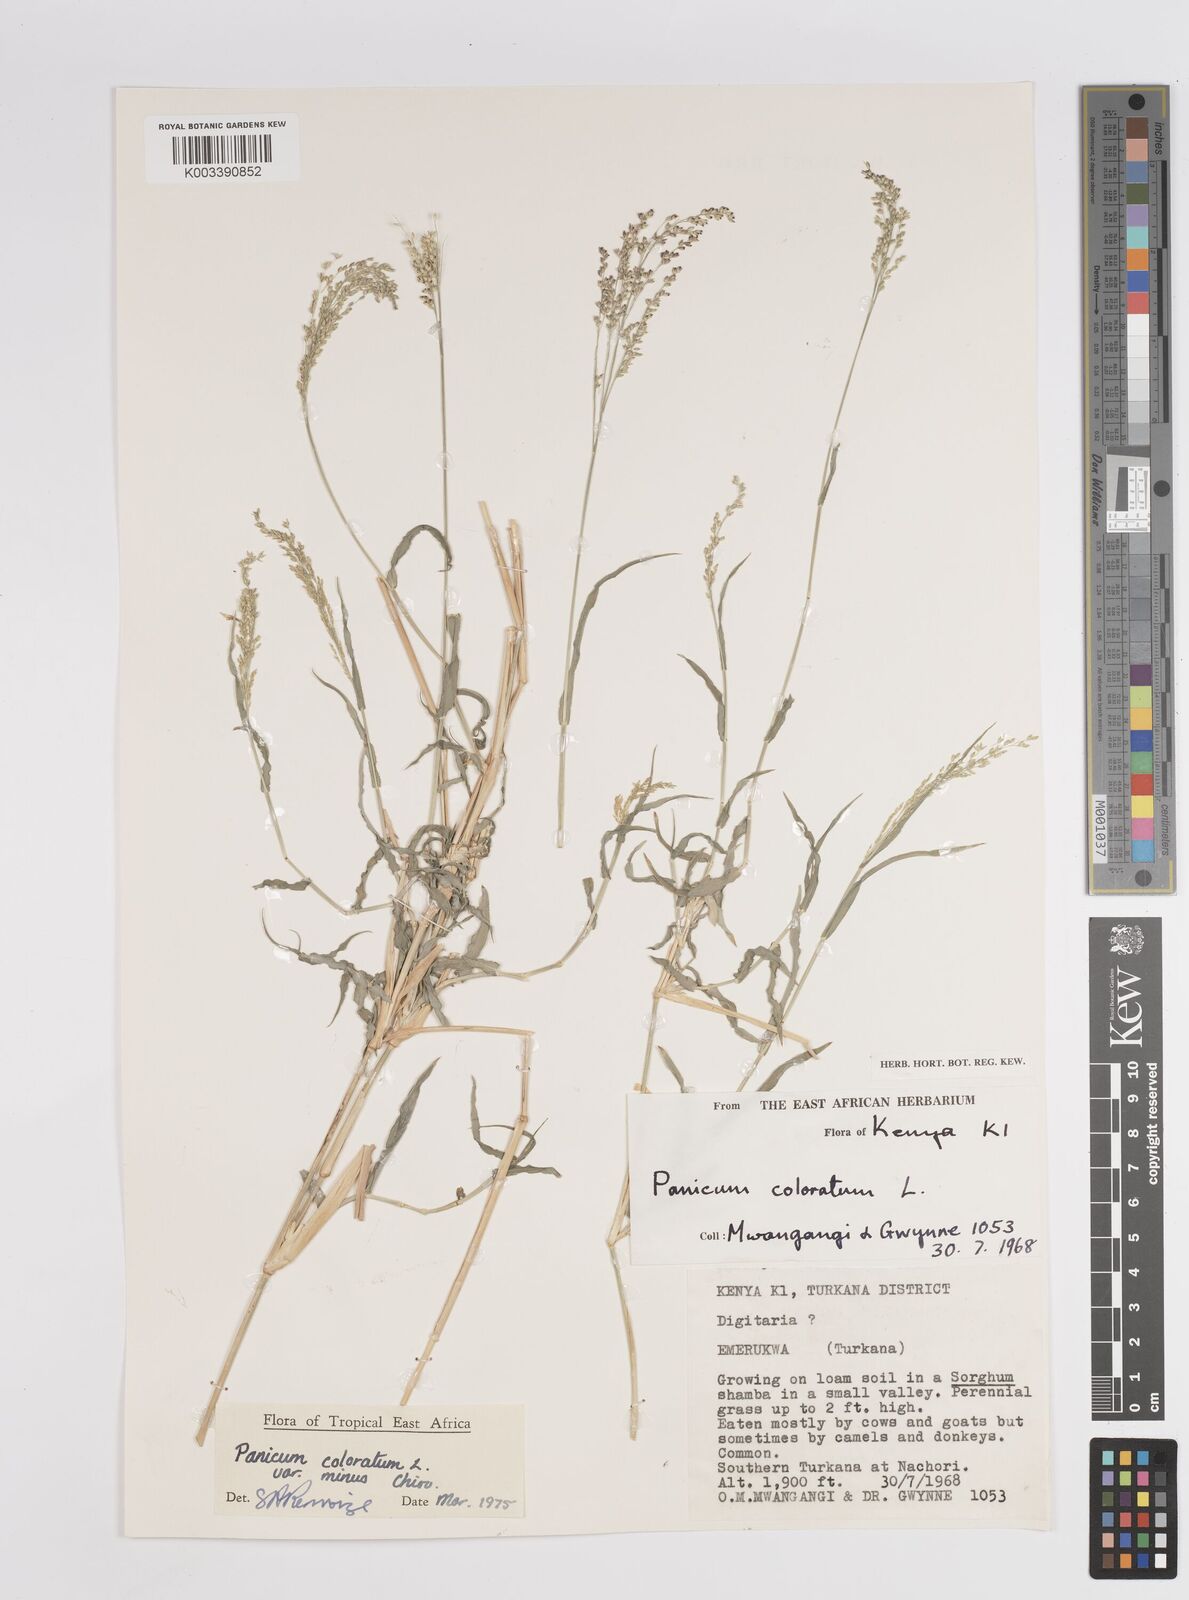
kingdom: Plantae
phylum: Tracheophyta
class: Liliopsida
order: Poales
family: Poaceae
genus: Panicum
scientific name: Panicum coloratum
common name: Kleingrass
